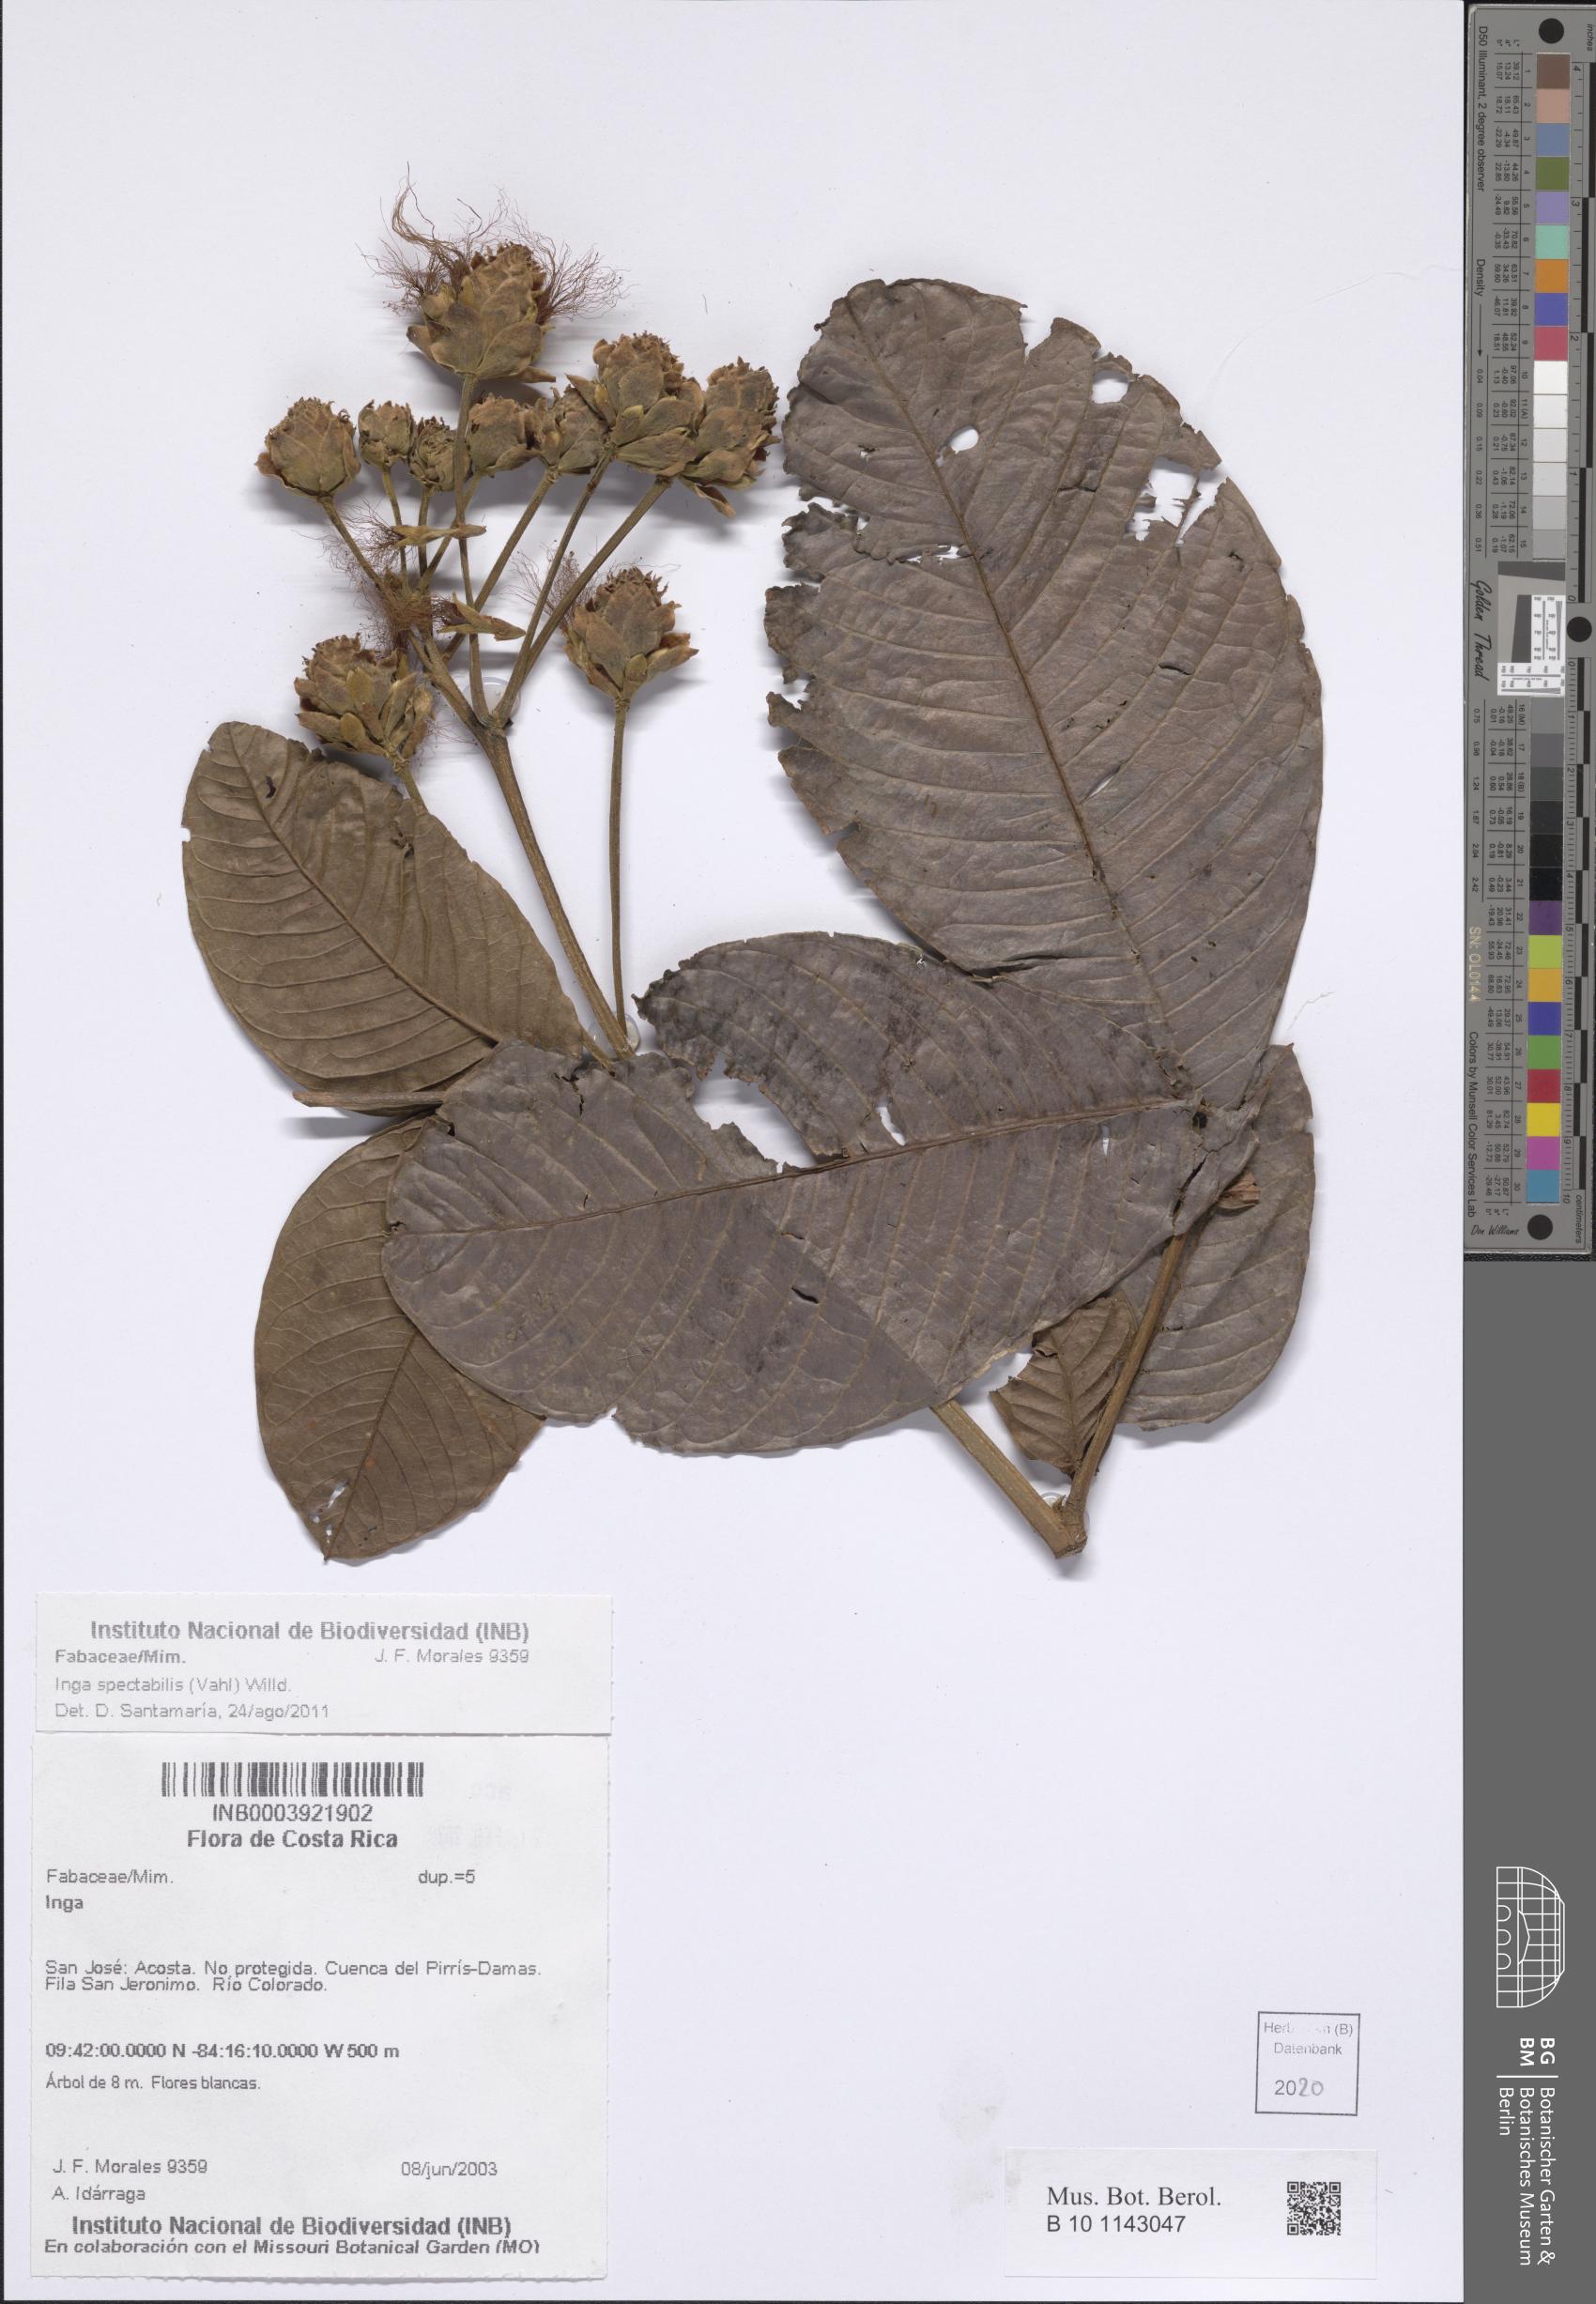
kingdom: Plantae
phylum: Tracheophyta
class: Magnoliopsida
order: Fabales
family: Fabaceae
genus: Inga
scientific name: Inga spectabilis
